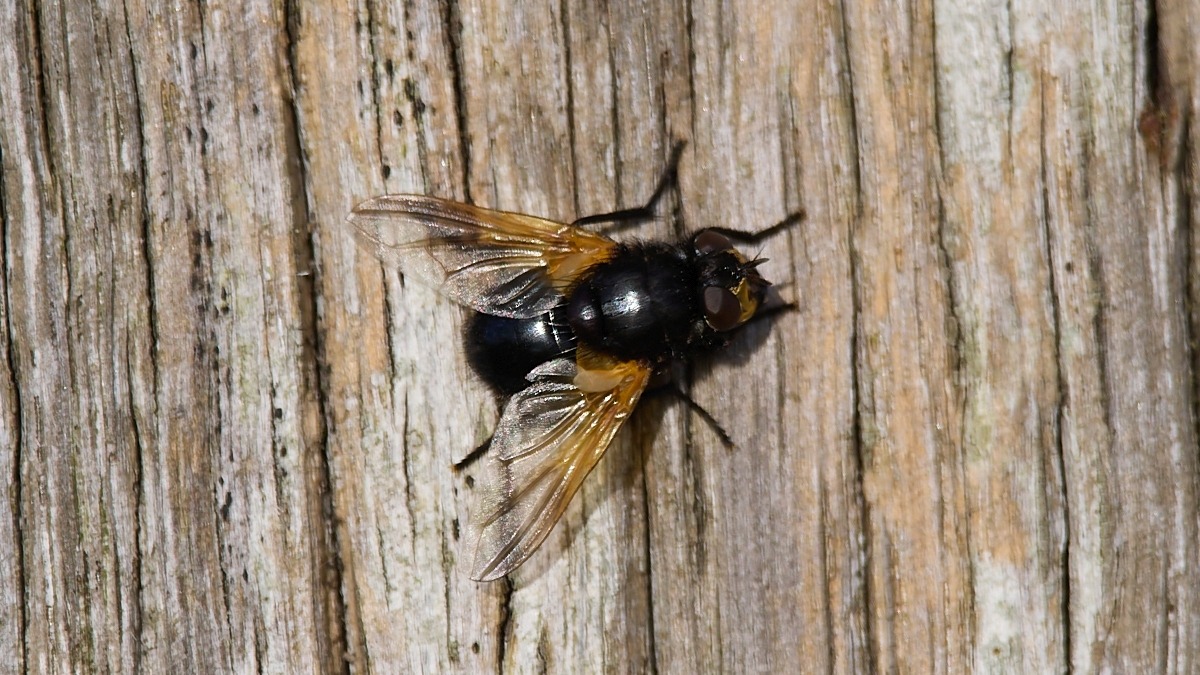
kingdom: Animalia
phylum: Arthropoda
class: Insecta
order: Diptera
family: Muscidae
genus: Mesembrina
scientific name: Mesembrina meridiana
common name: Gulvinget flue
